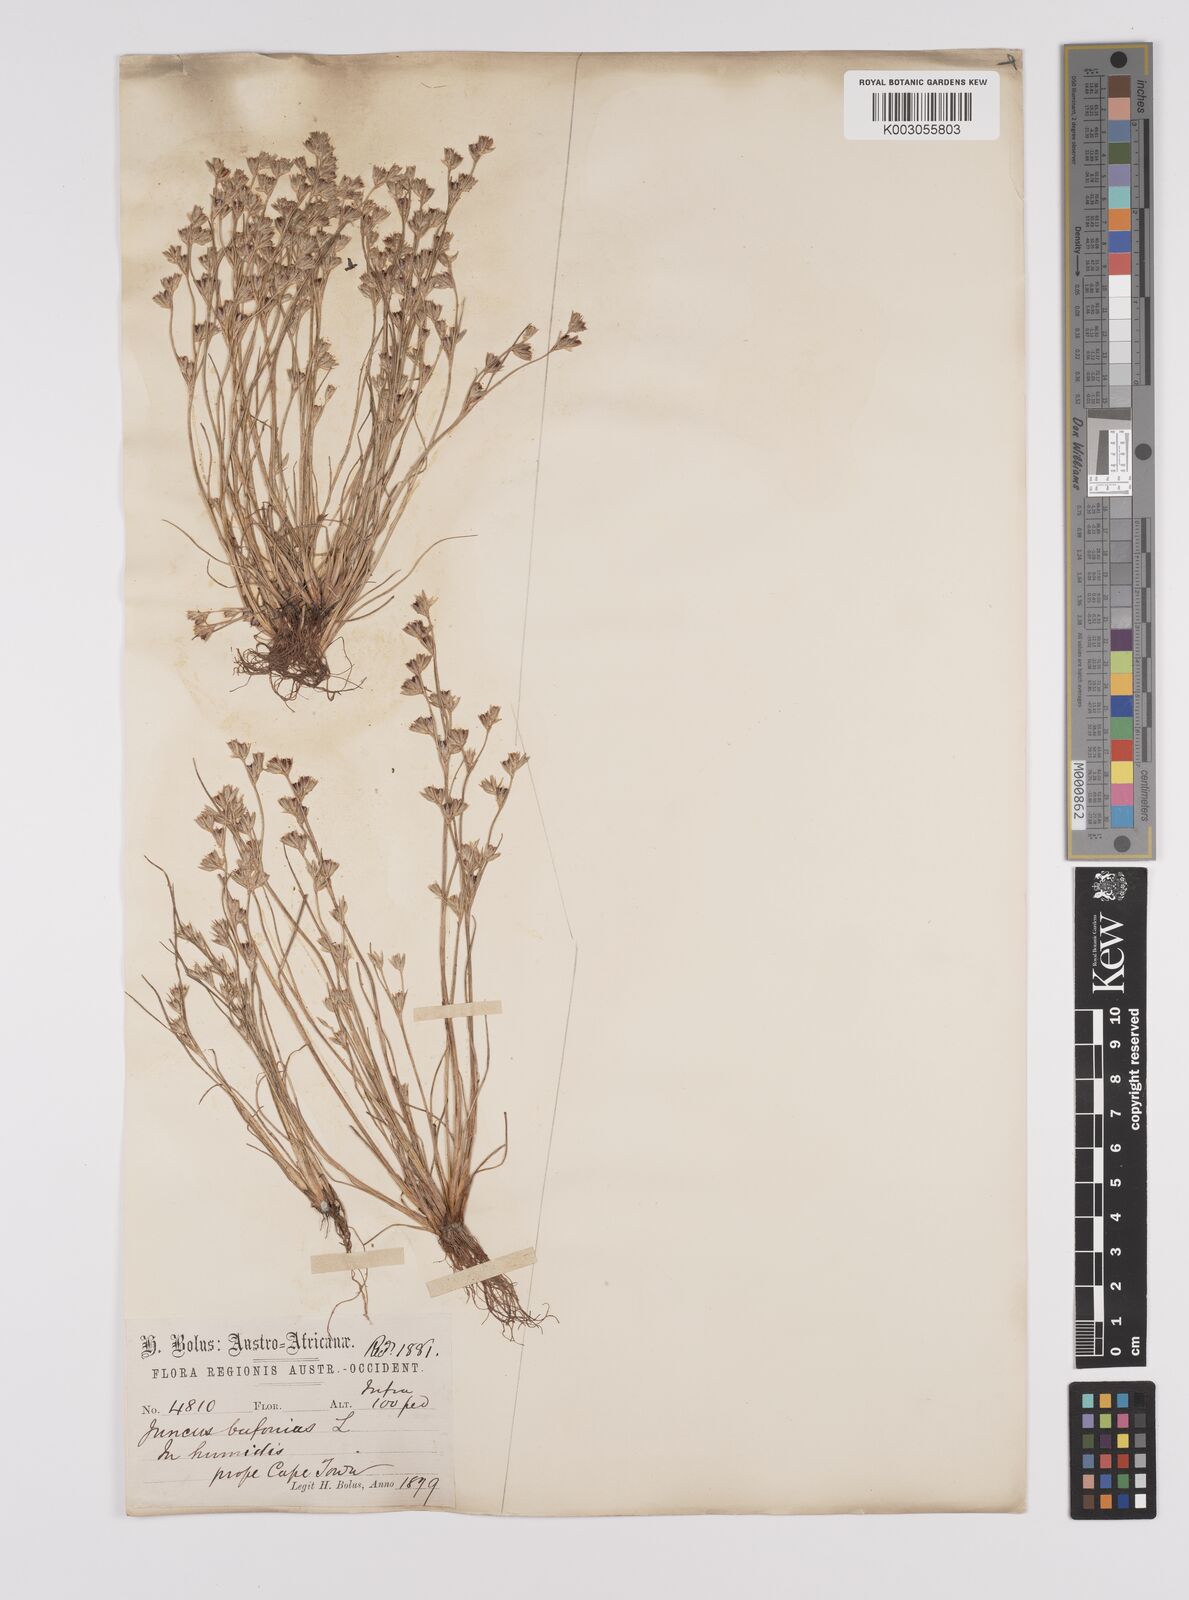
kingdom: Plantae
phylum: Tracheophyta
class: Liliopsida
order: Poales
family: Juncaceae
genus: Juncus
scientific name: Juncus bufonius
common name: Toad rush
